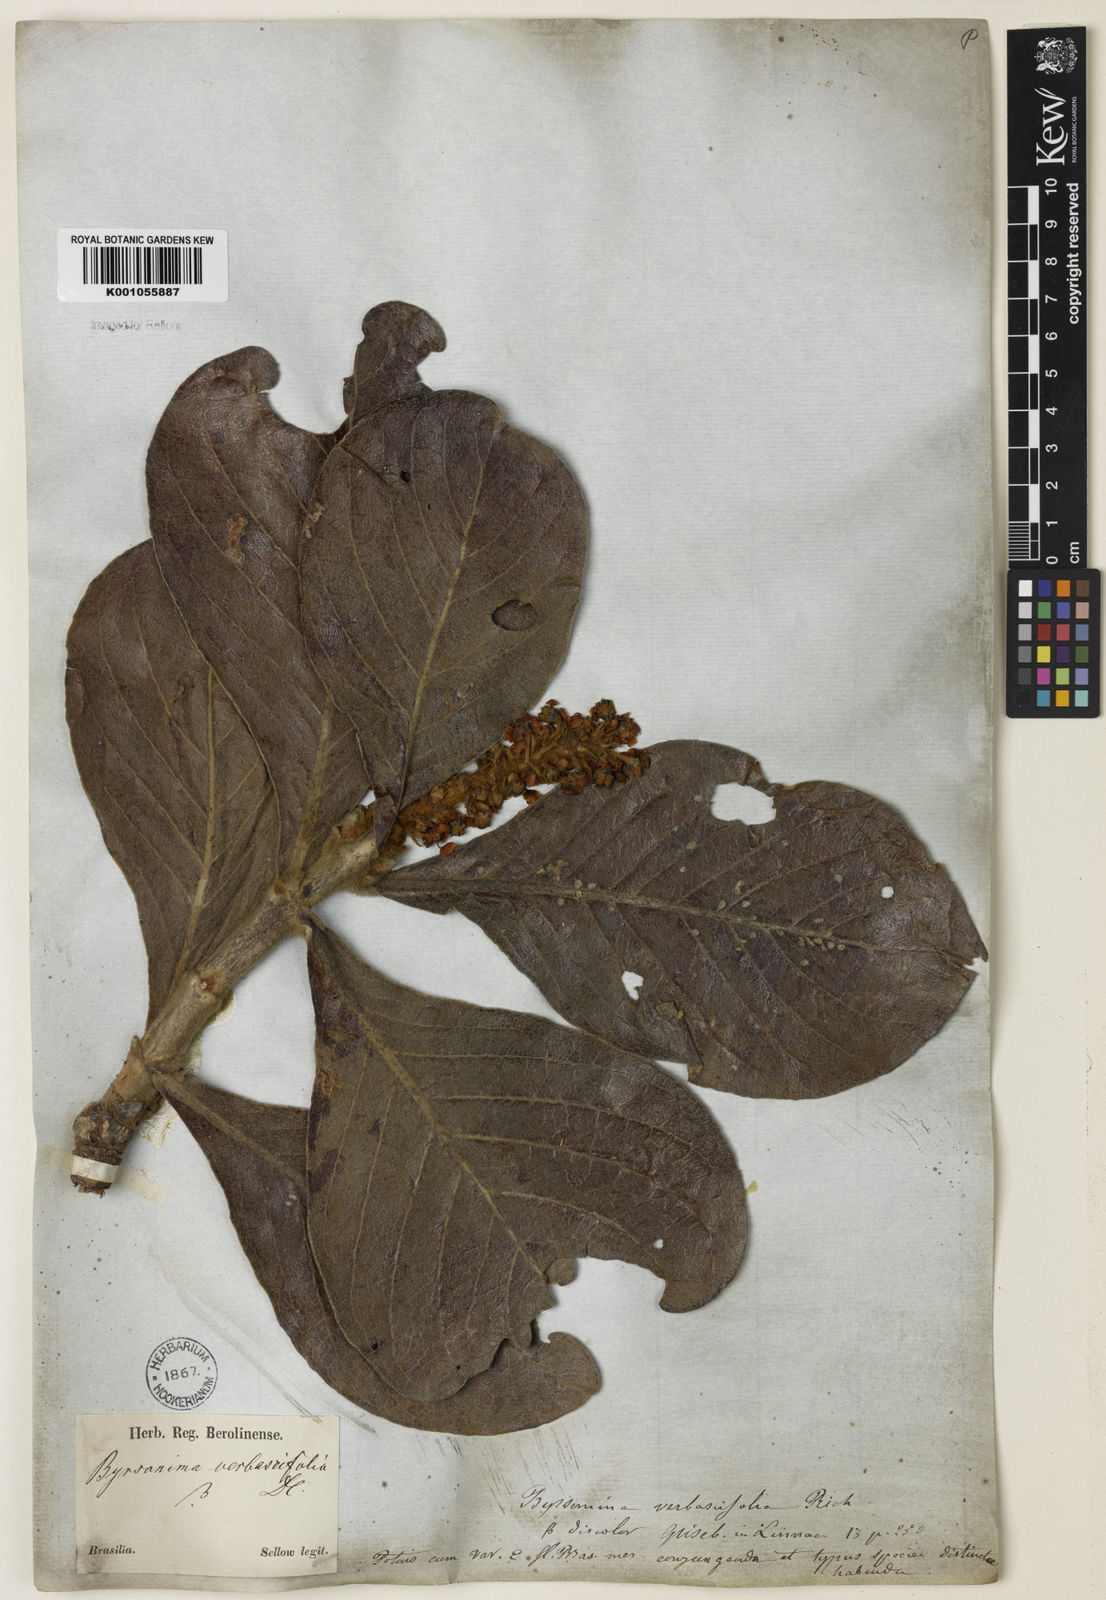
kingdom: Plantae
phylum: Tracheophyta
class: Magnoliopsida
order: Malpighiales
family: Malpighiaceae
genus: Byrsonima
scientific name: Byrsonima verbascifolia
